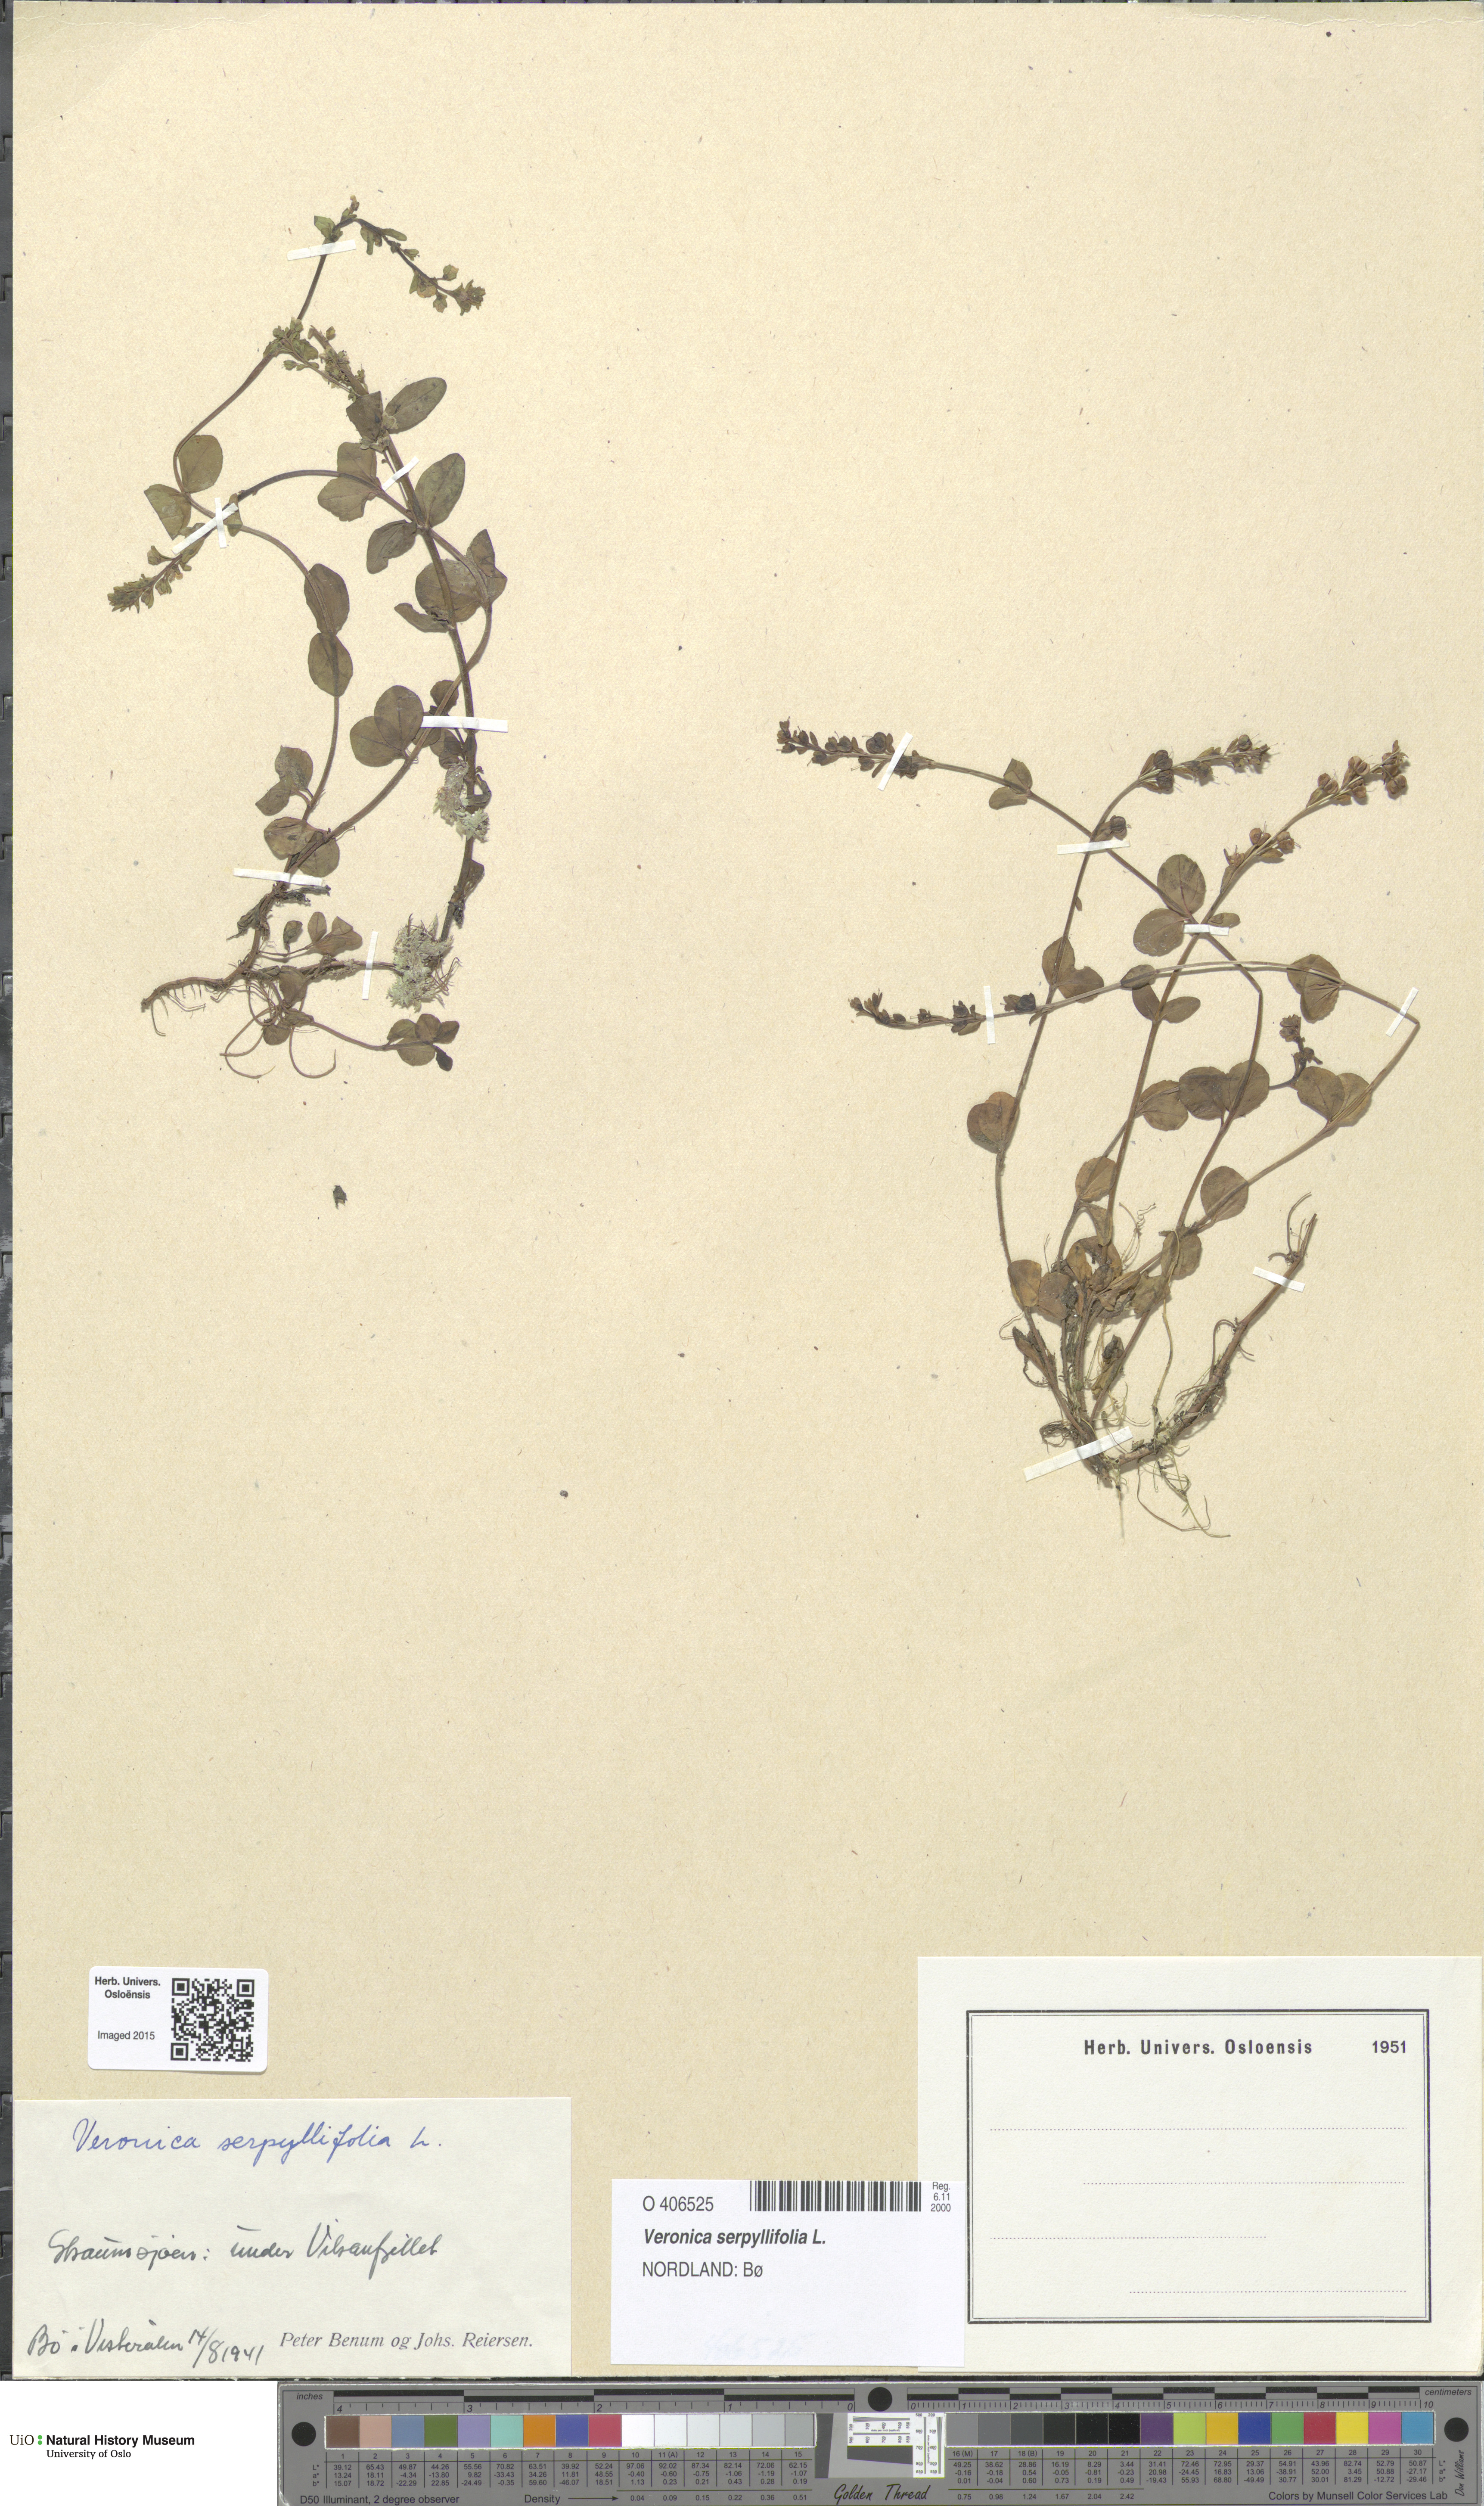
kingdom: Plantae
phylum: Tracheophyta
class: Magnoliopsida
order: Lamiales
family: Plantaginaceae
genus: Veronica
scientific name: Veronica serpyllifolia
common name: Thyme-leaved speedwell
